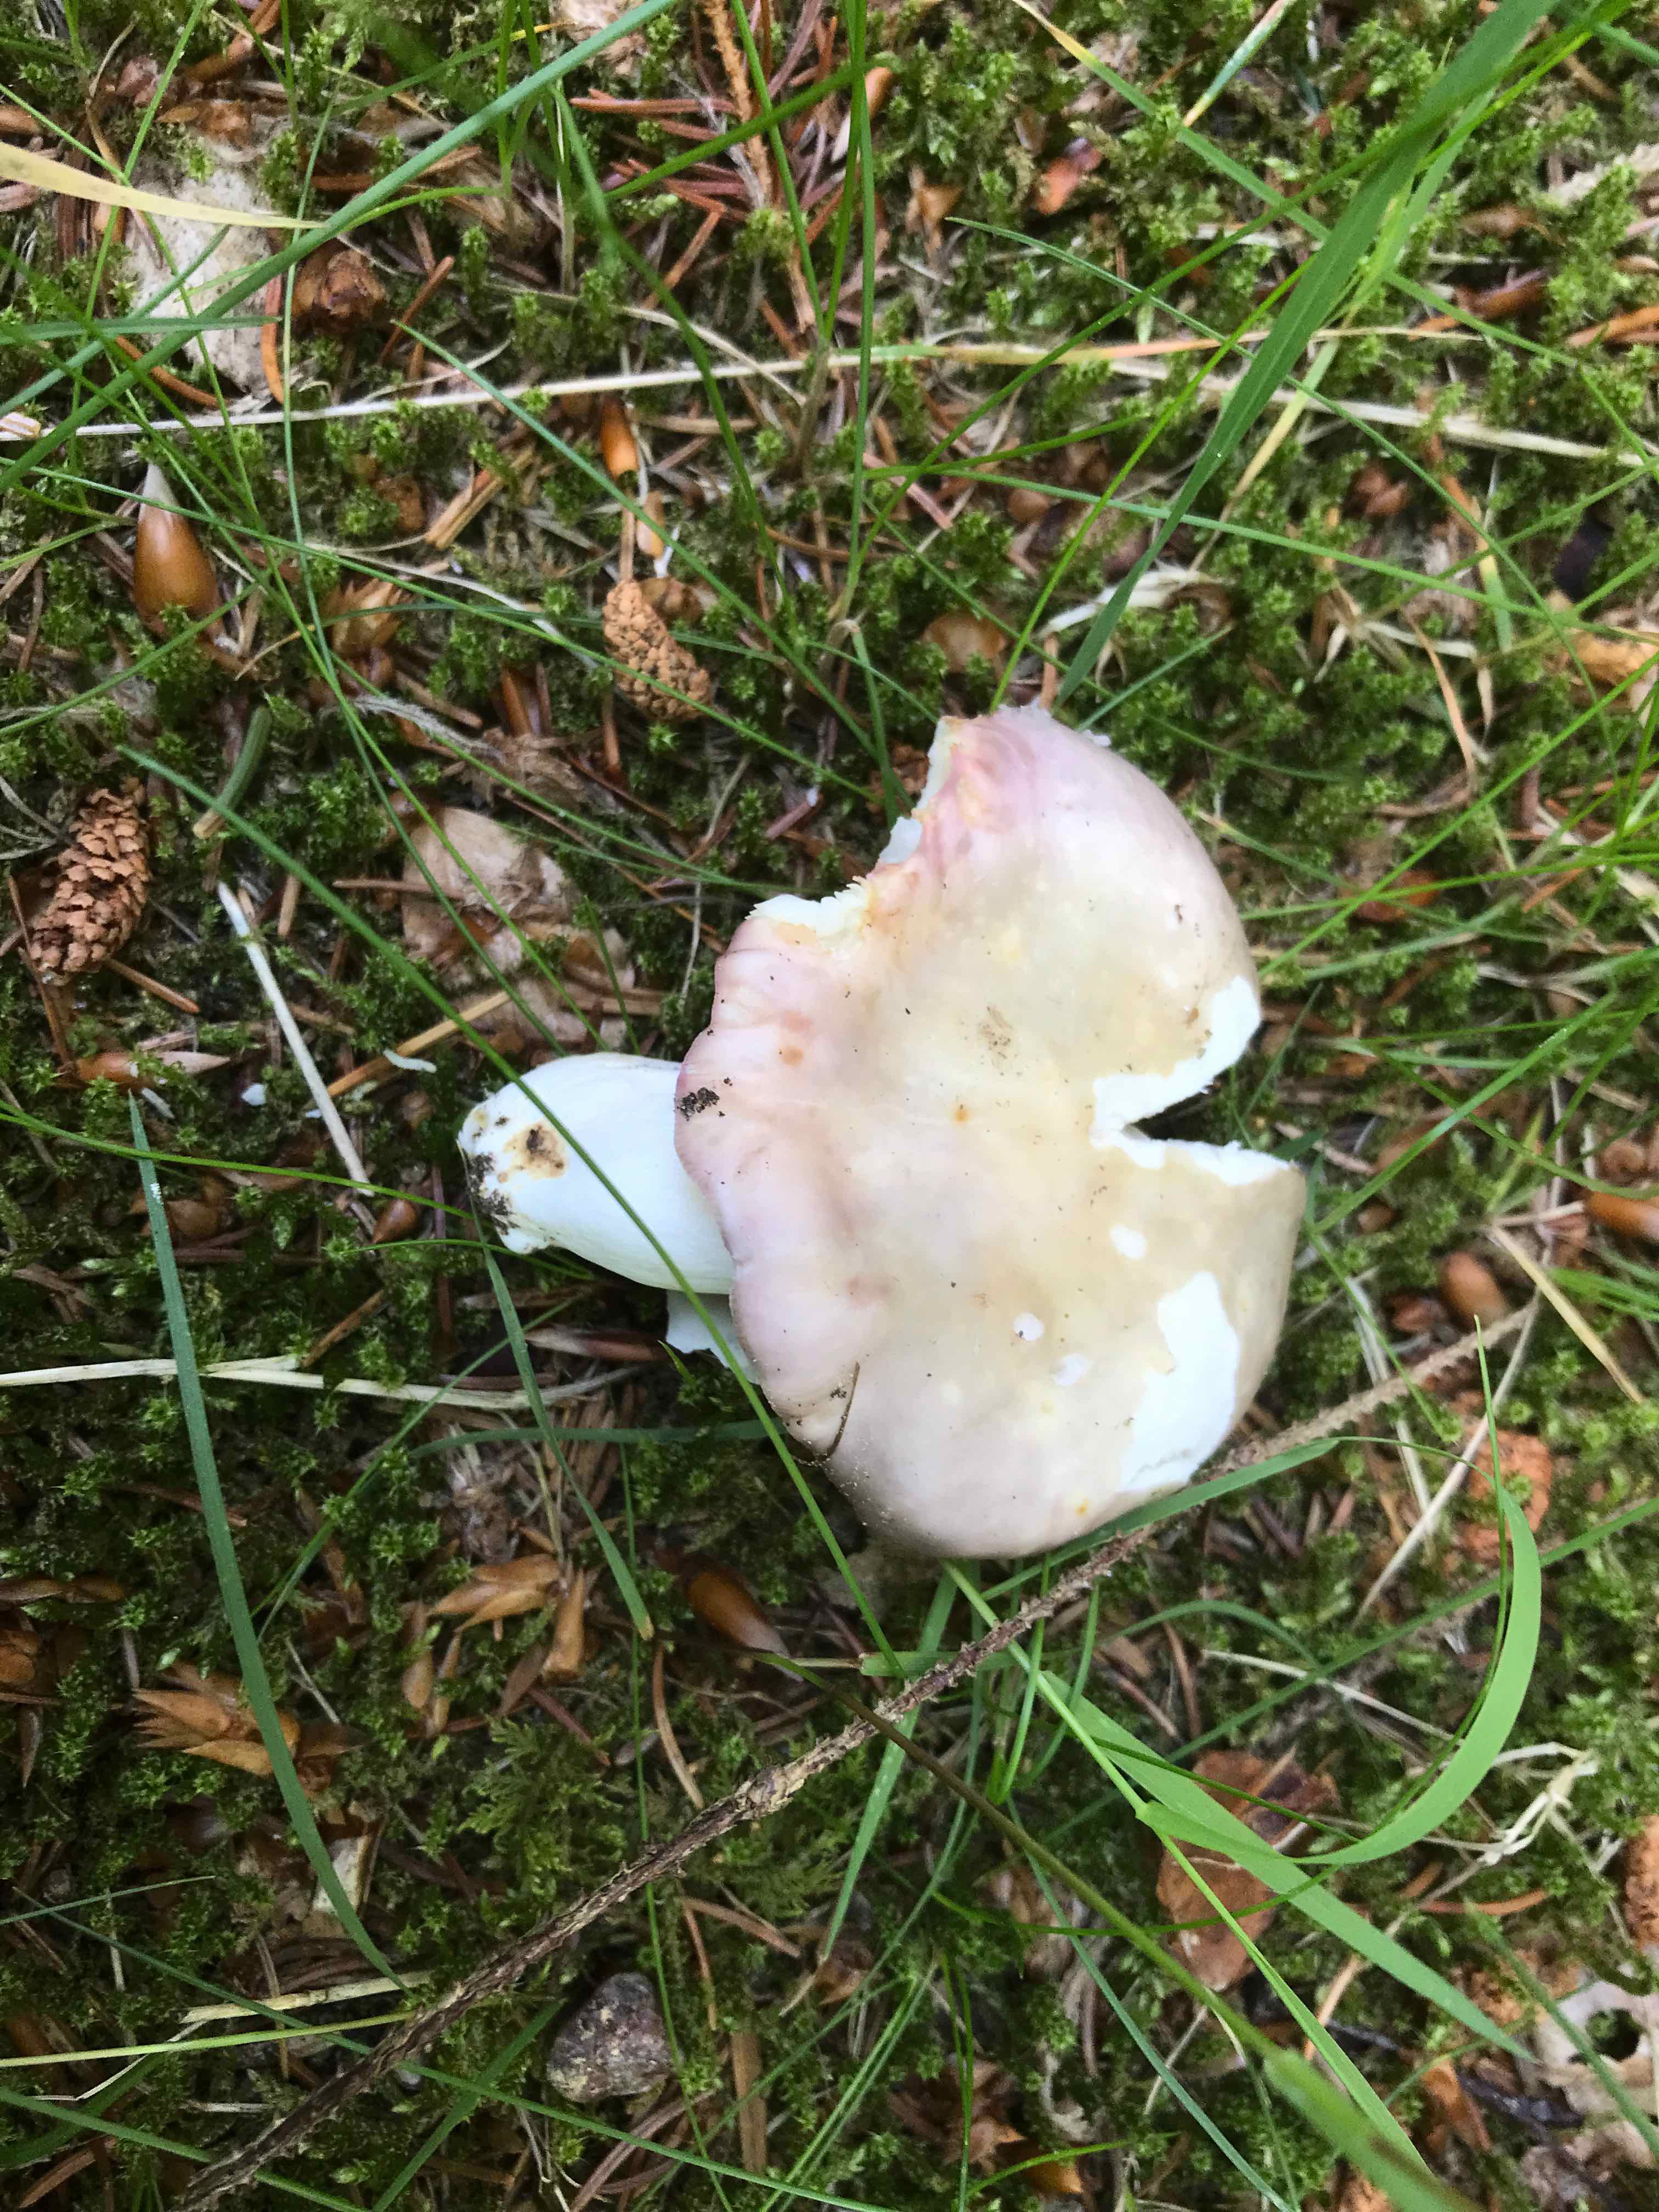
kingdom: Fungi
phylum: Basidiomycota
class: Agaricomycetes
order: Russulales
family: Russulaceae
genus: Russula
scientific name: Russula
